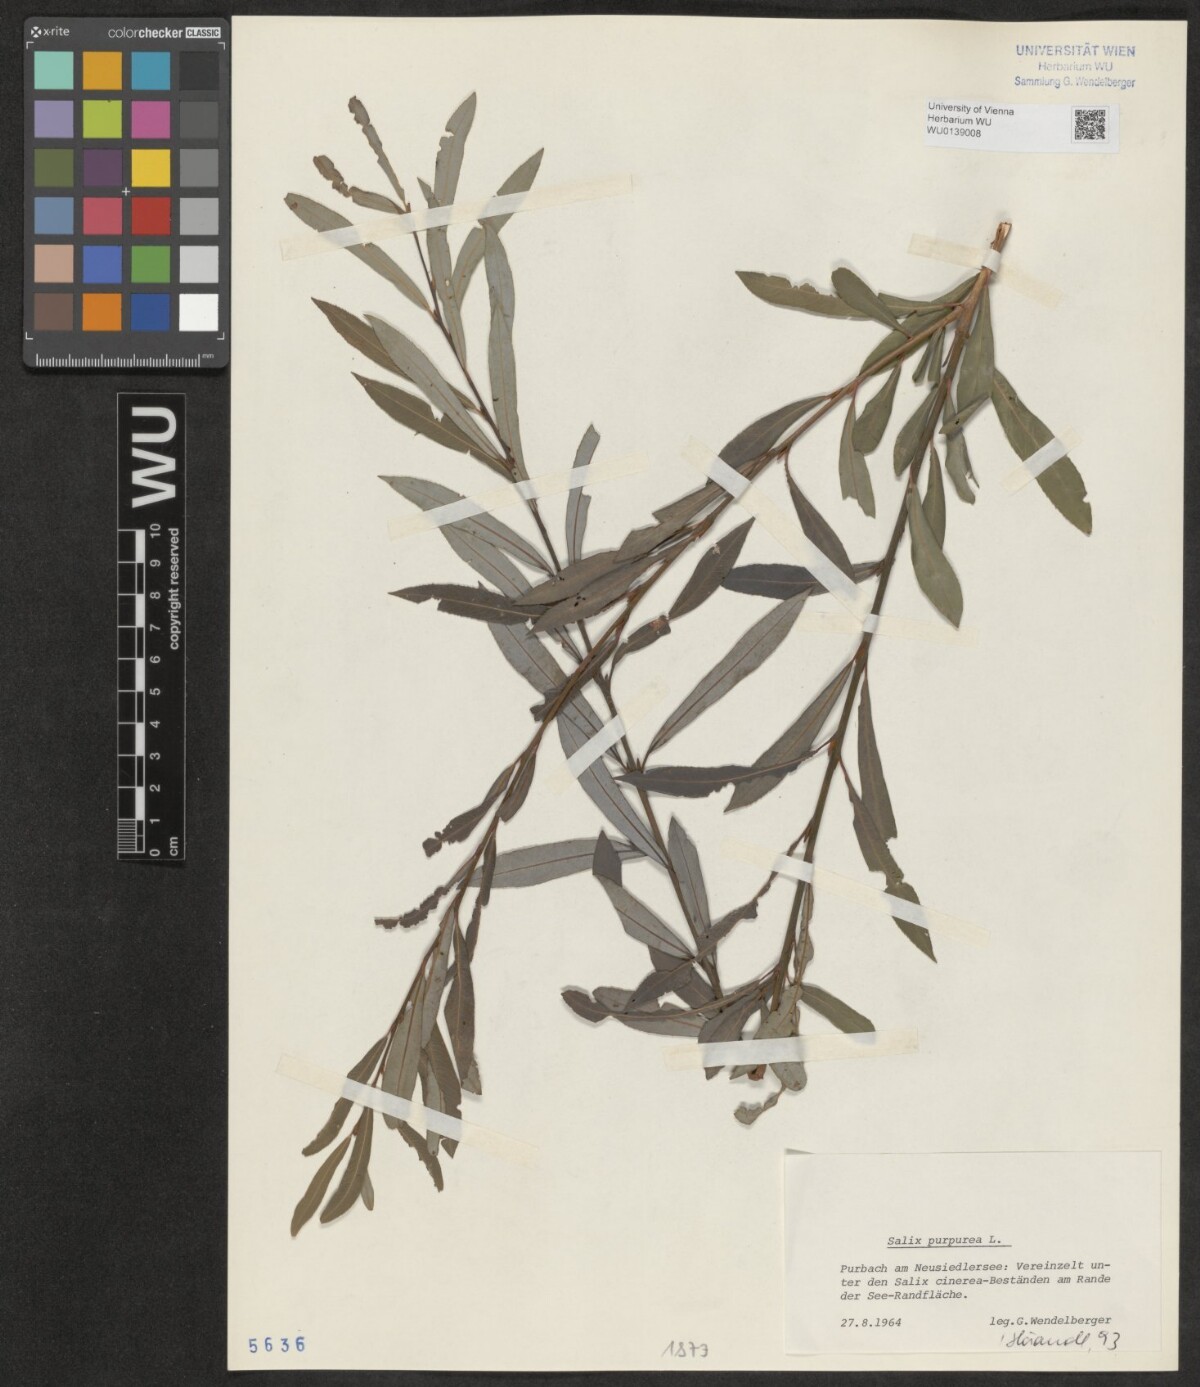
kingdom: Plantae
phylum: Tracheophyta
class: Magnoliopsida
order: Malpighiales
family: Salicaceae
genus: Salix
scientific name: Salix purpurea
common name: Purple willow
